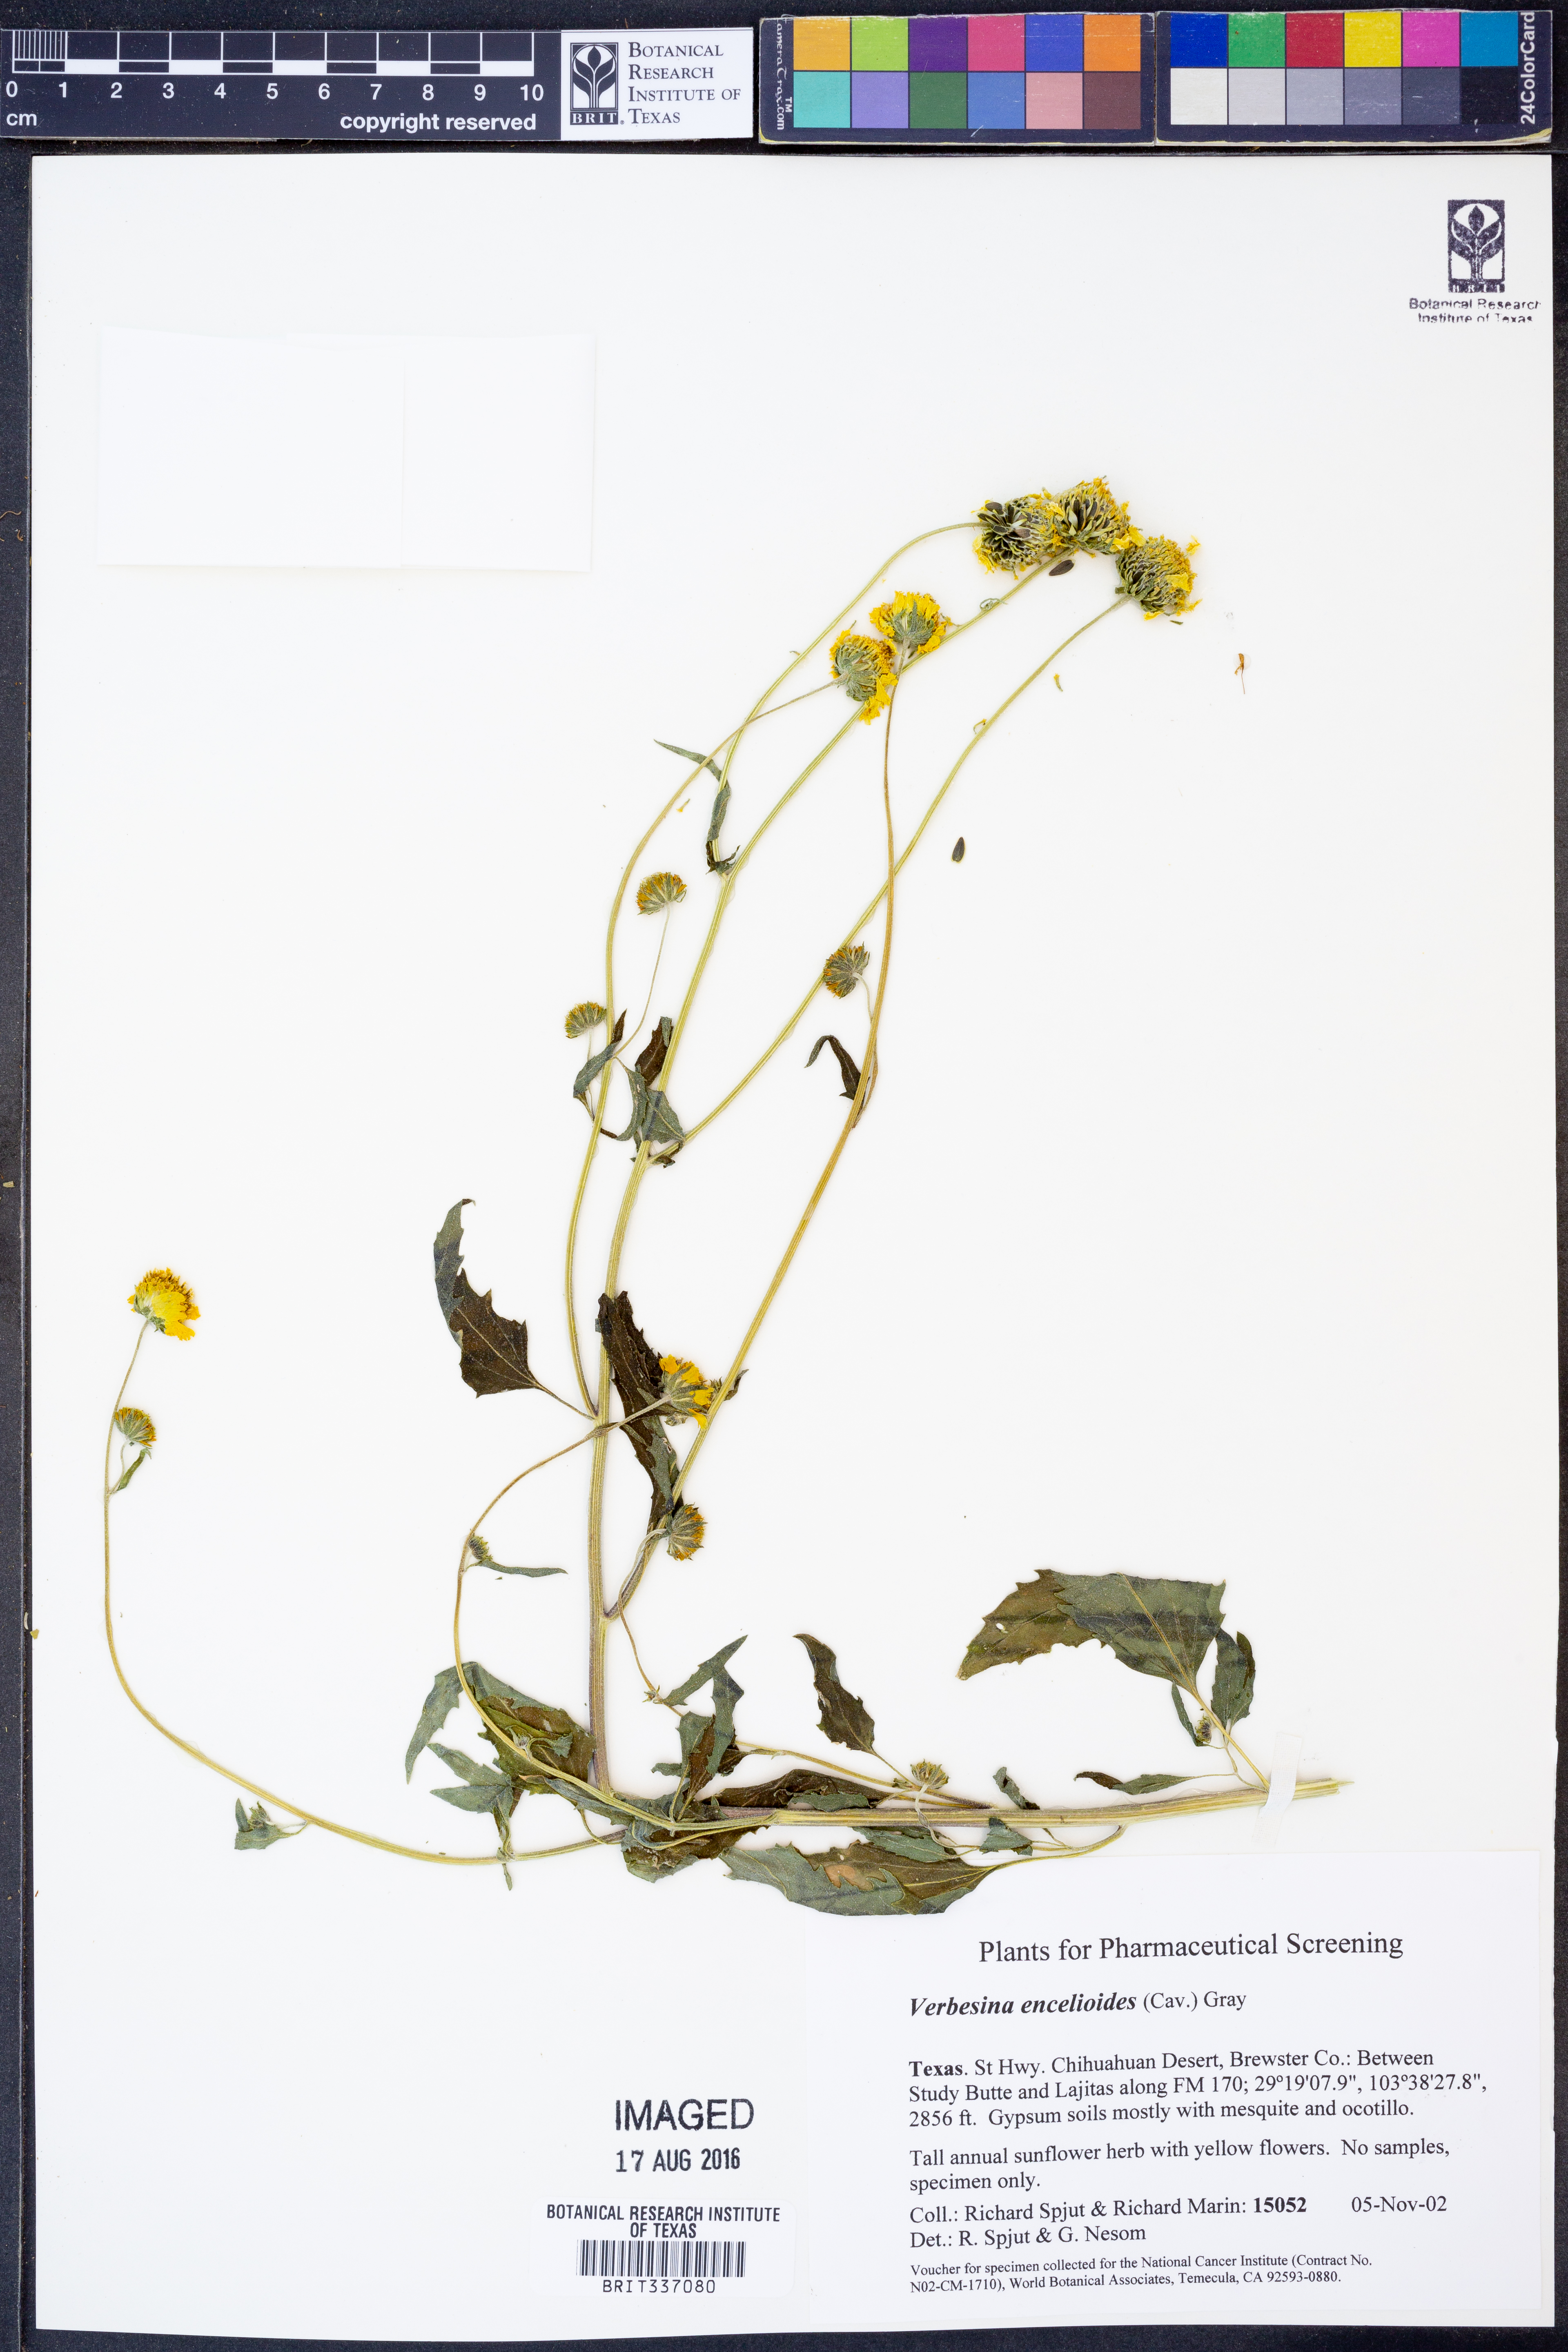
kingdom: Plantae
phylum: Tracheophyta
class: Magnoliopsida
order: Asterales
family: Asteraceae
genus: Verbesina
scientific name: Verbesina encelioides
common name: Golden crownbeard
